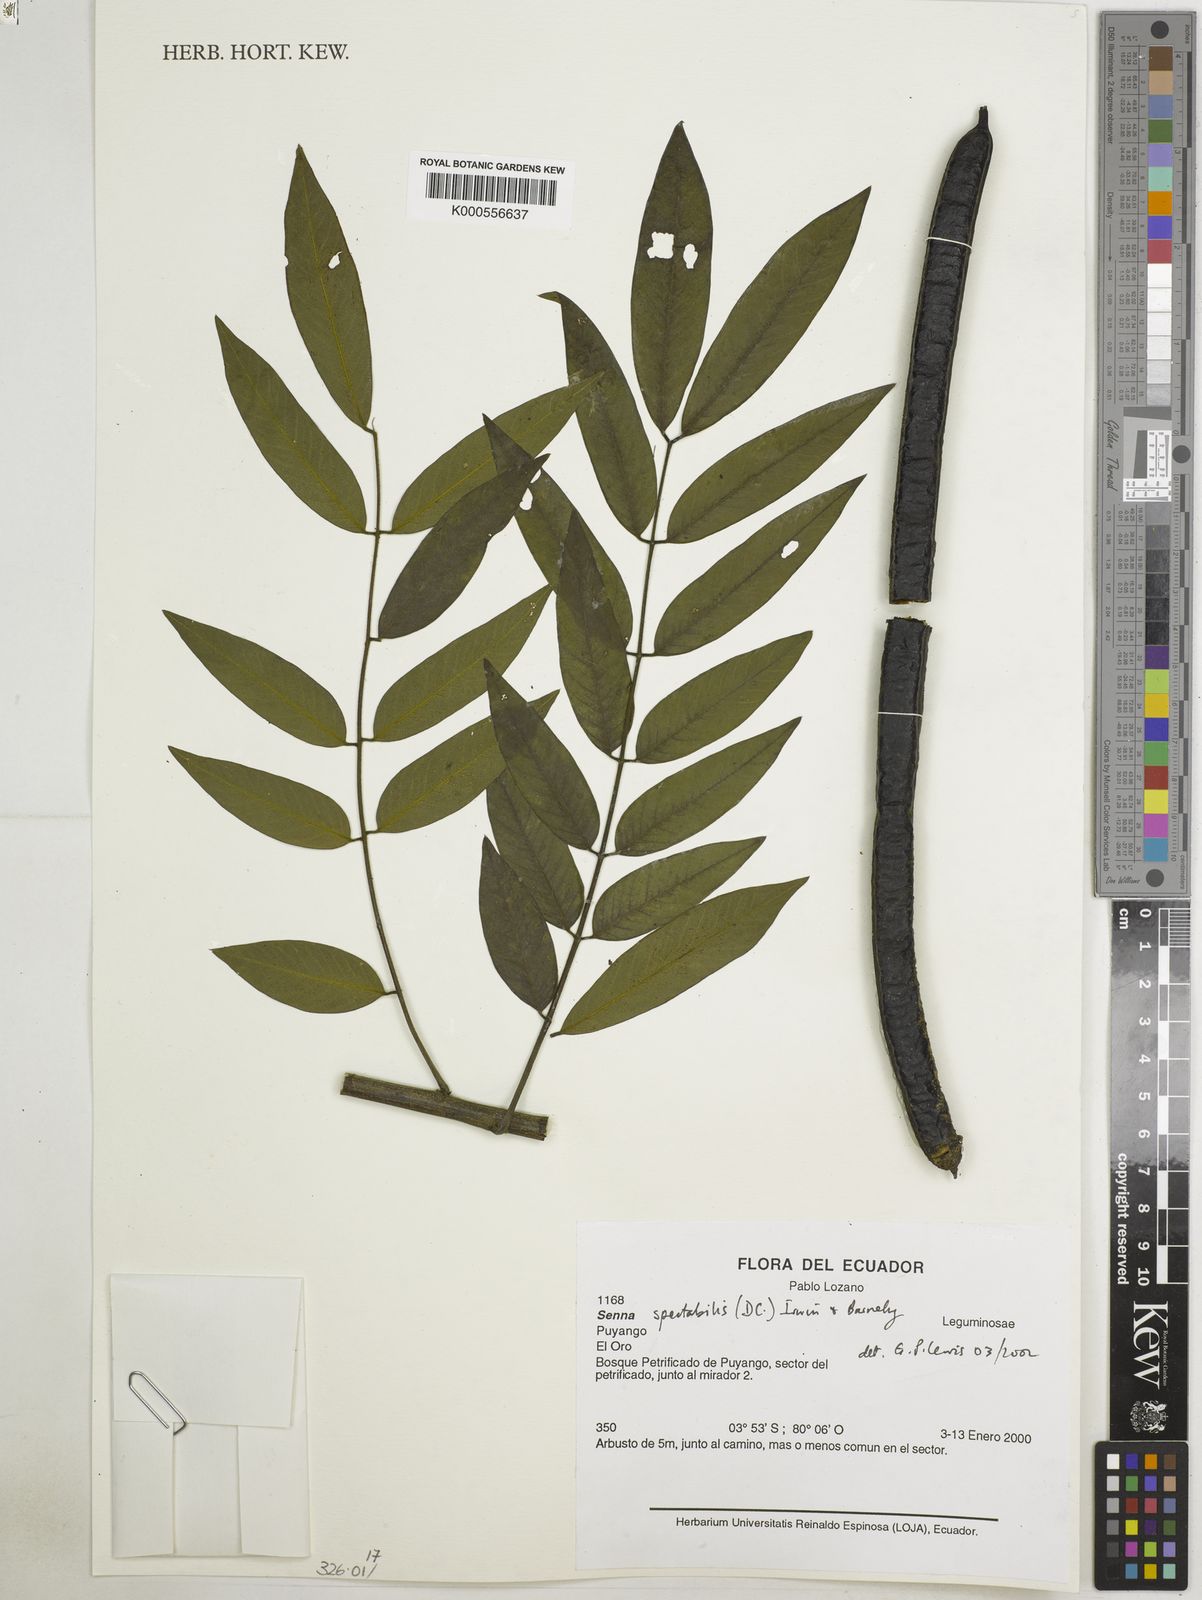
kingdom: Plantae
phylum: Tracheophyta
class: Magnoliopsida
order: Fabales
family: Fabaceae
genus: Senna
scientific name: Senna spectabilis
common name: Casia amarilla
